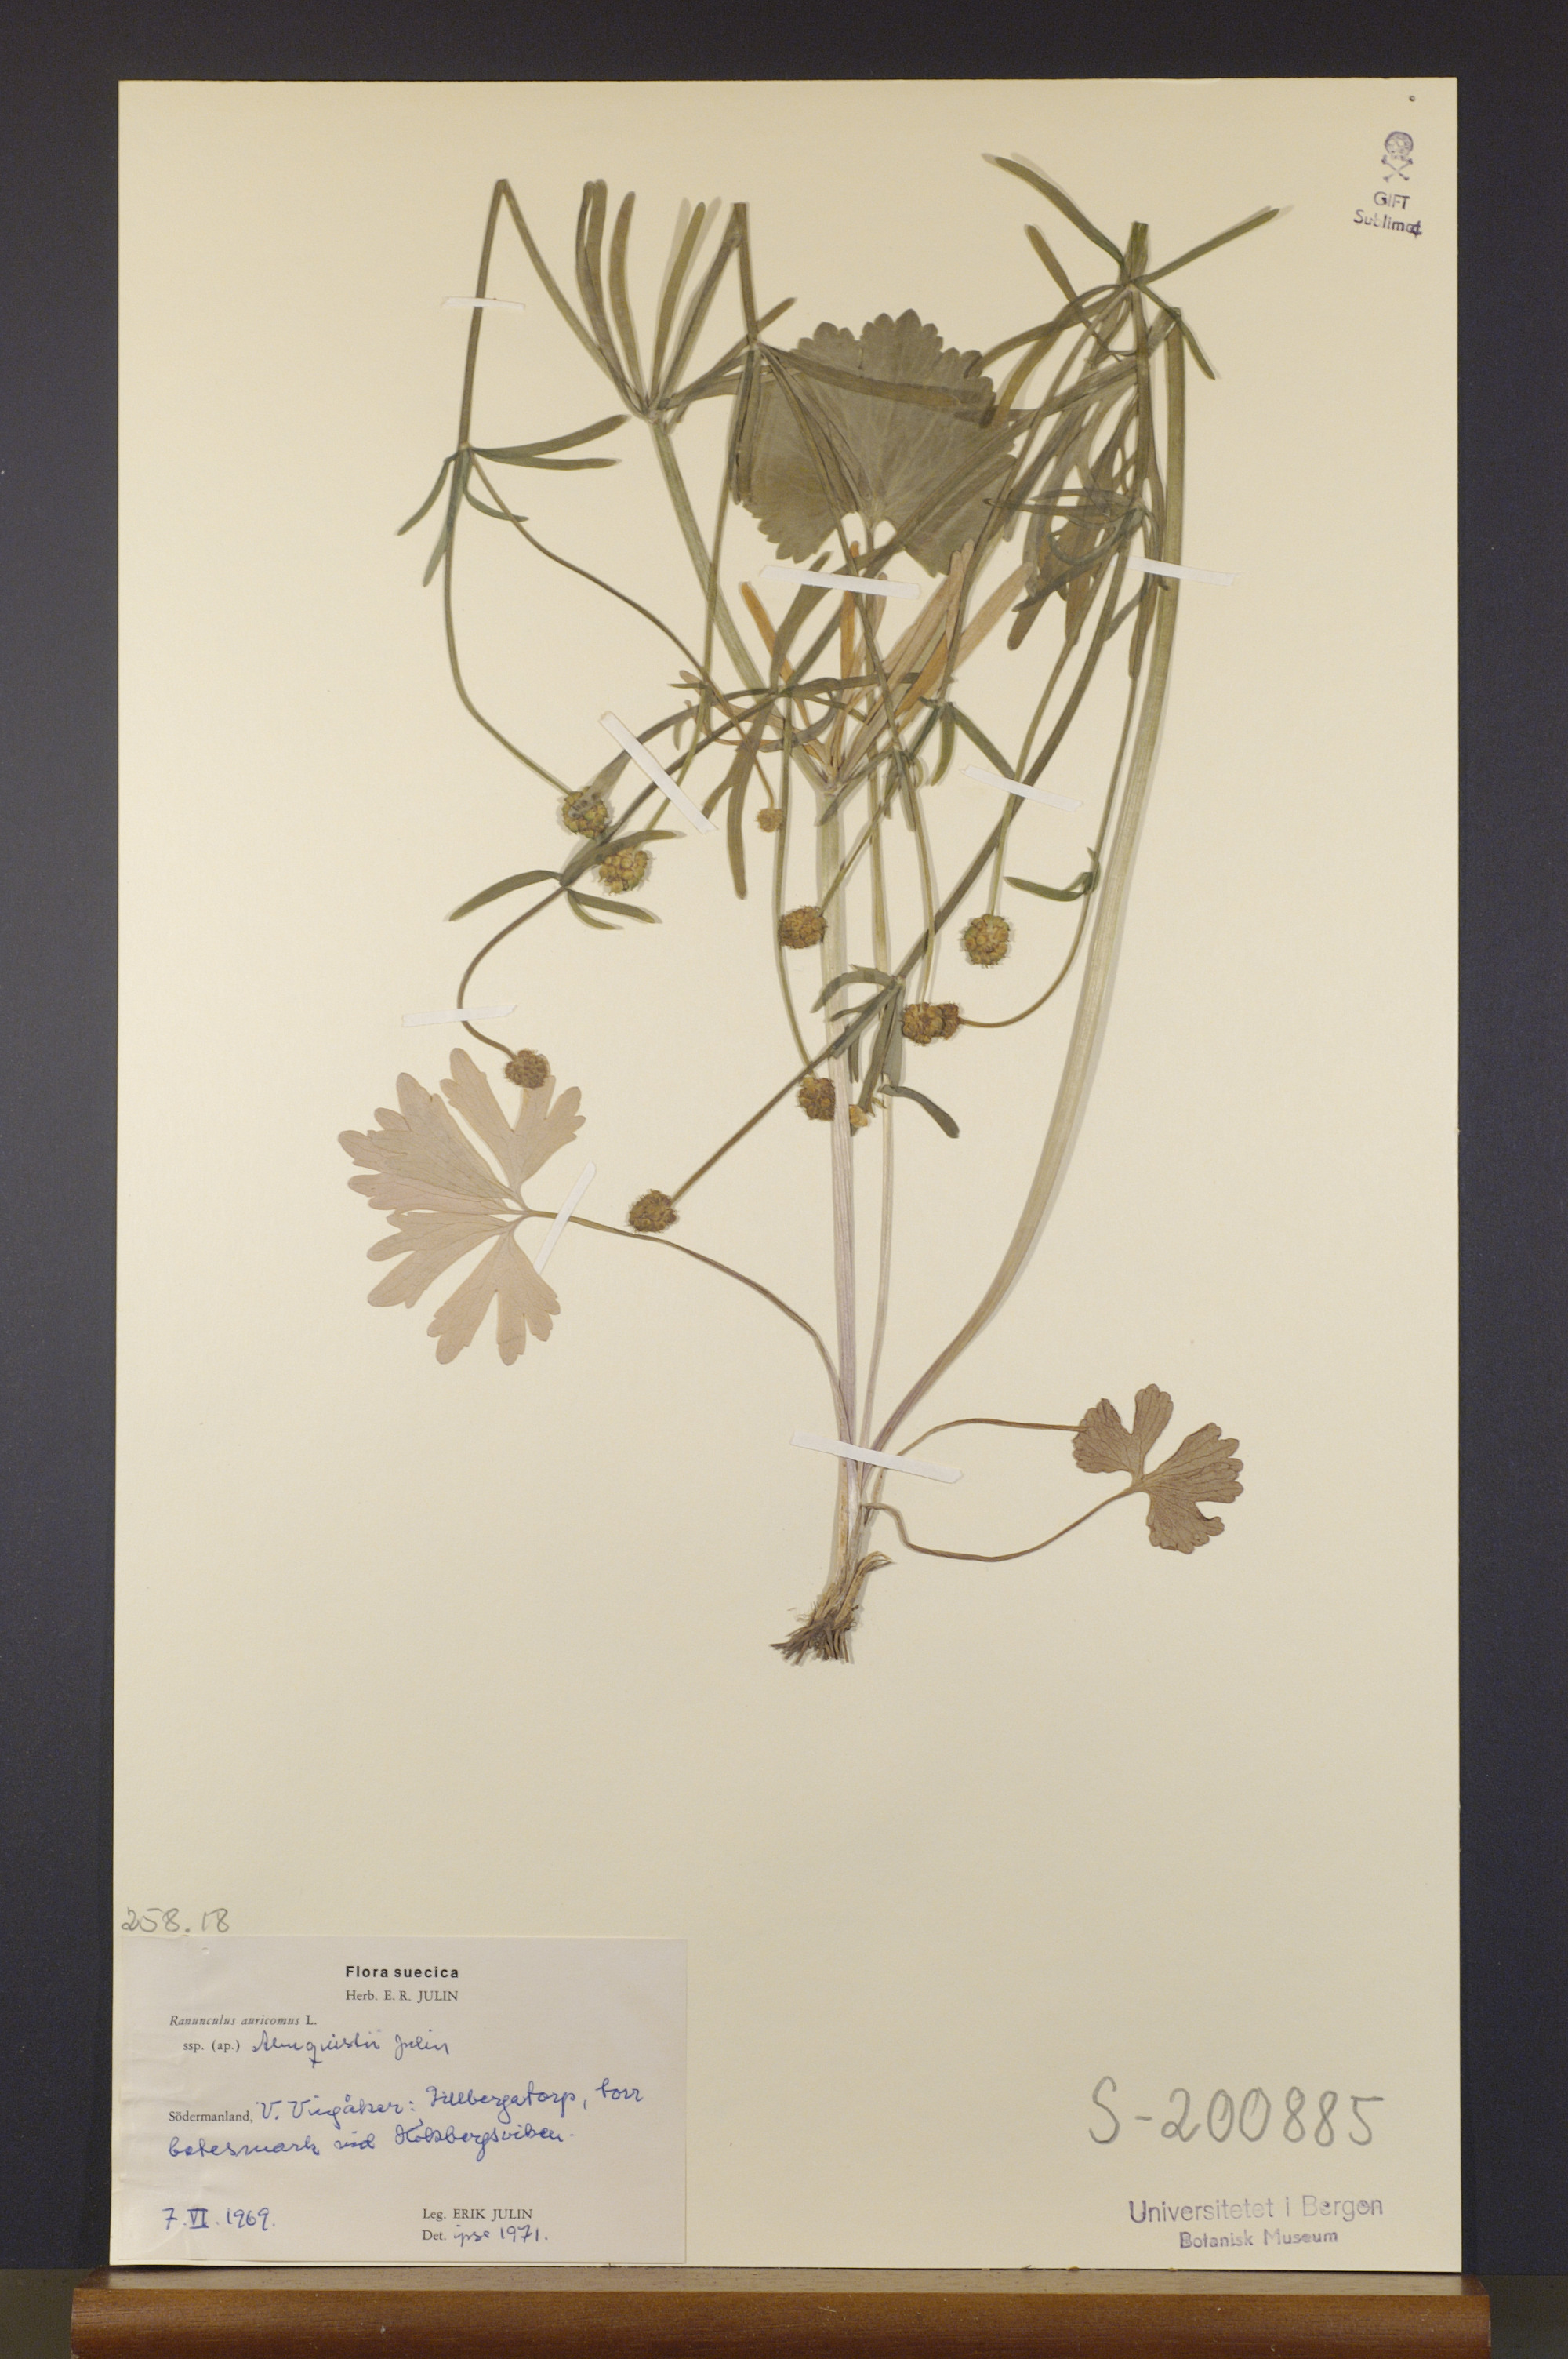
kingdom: Plantae
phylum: Tracheophyta
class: Magnoliopsida
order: Ranunculales
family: Ranunculaceae
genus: Ranunculus
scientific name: Ranunculus almquistii
